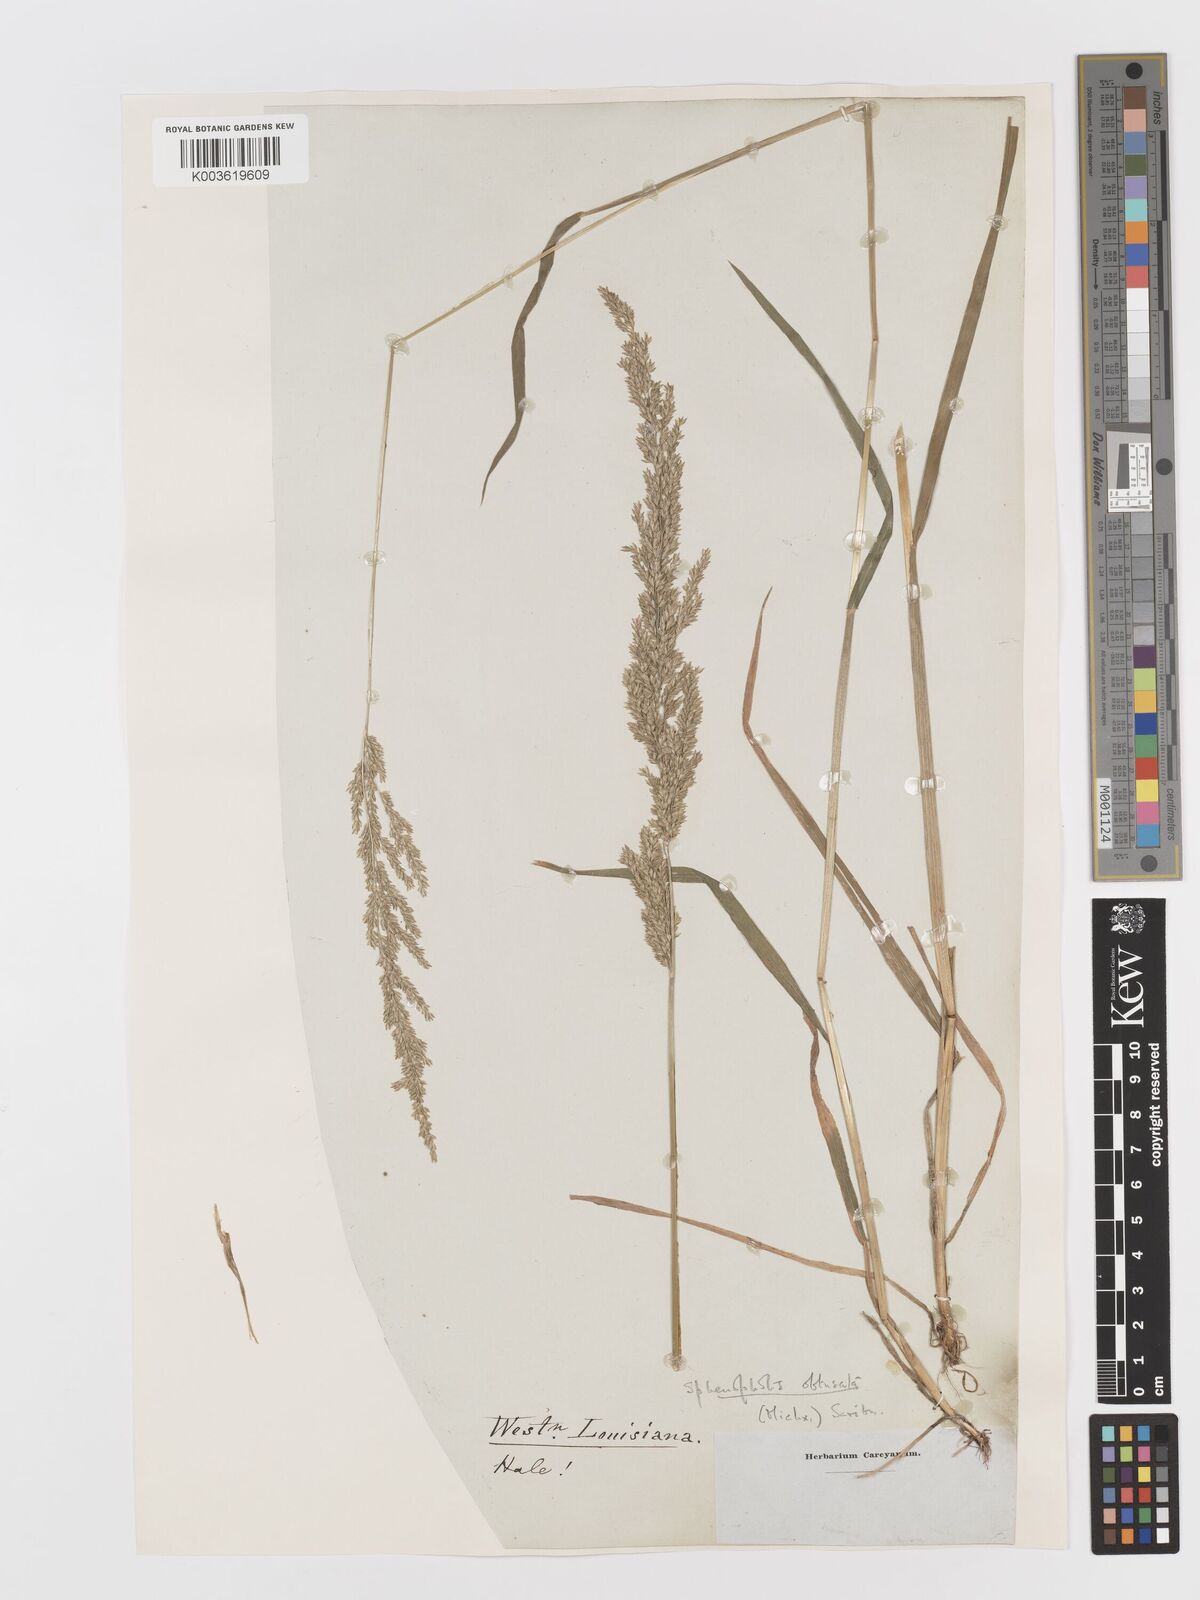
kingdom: Plantae
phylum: Tracheophyta
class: Liliopsida
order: Poales
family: Poaceae
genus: Sphenopholis
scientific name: Sphenopholis obtusata
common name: Prairie grass
